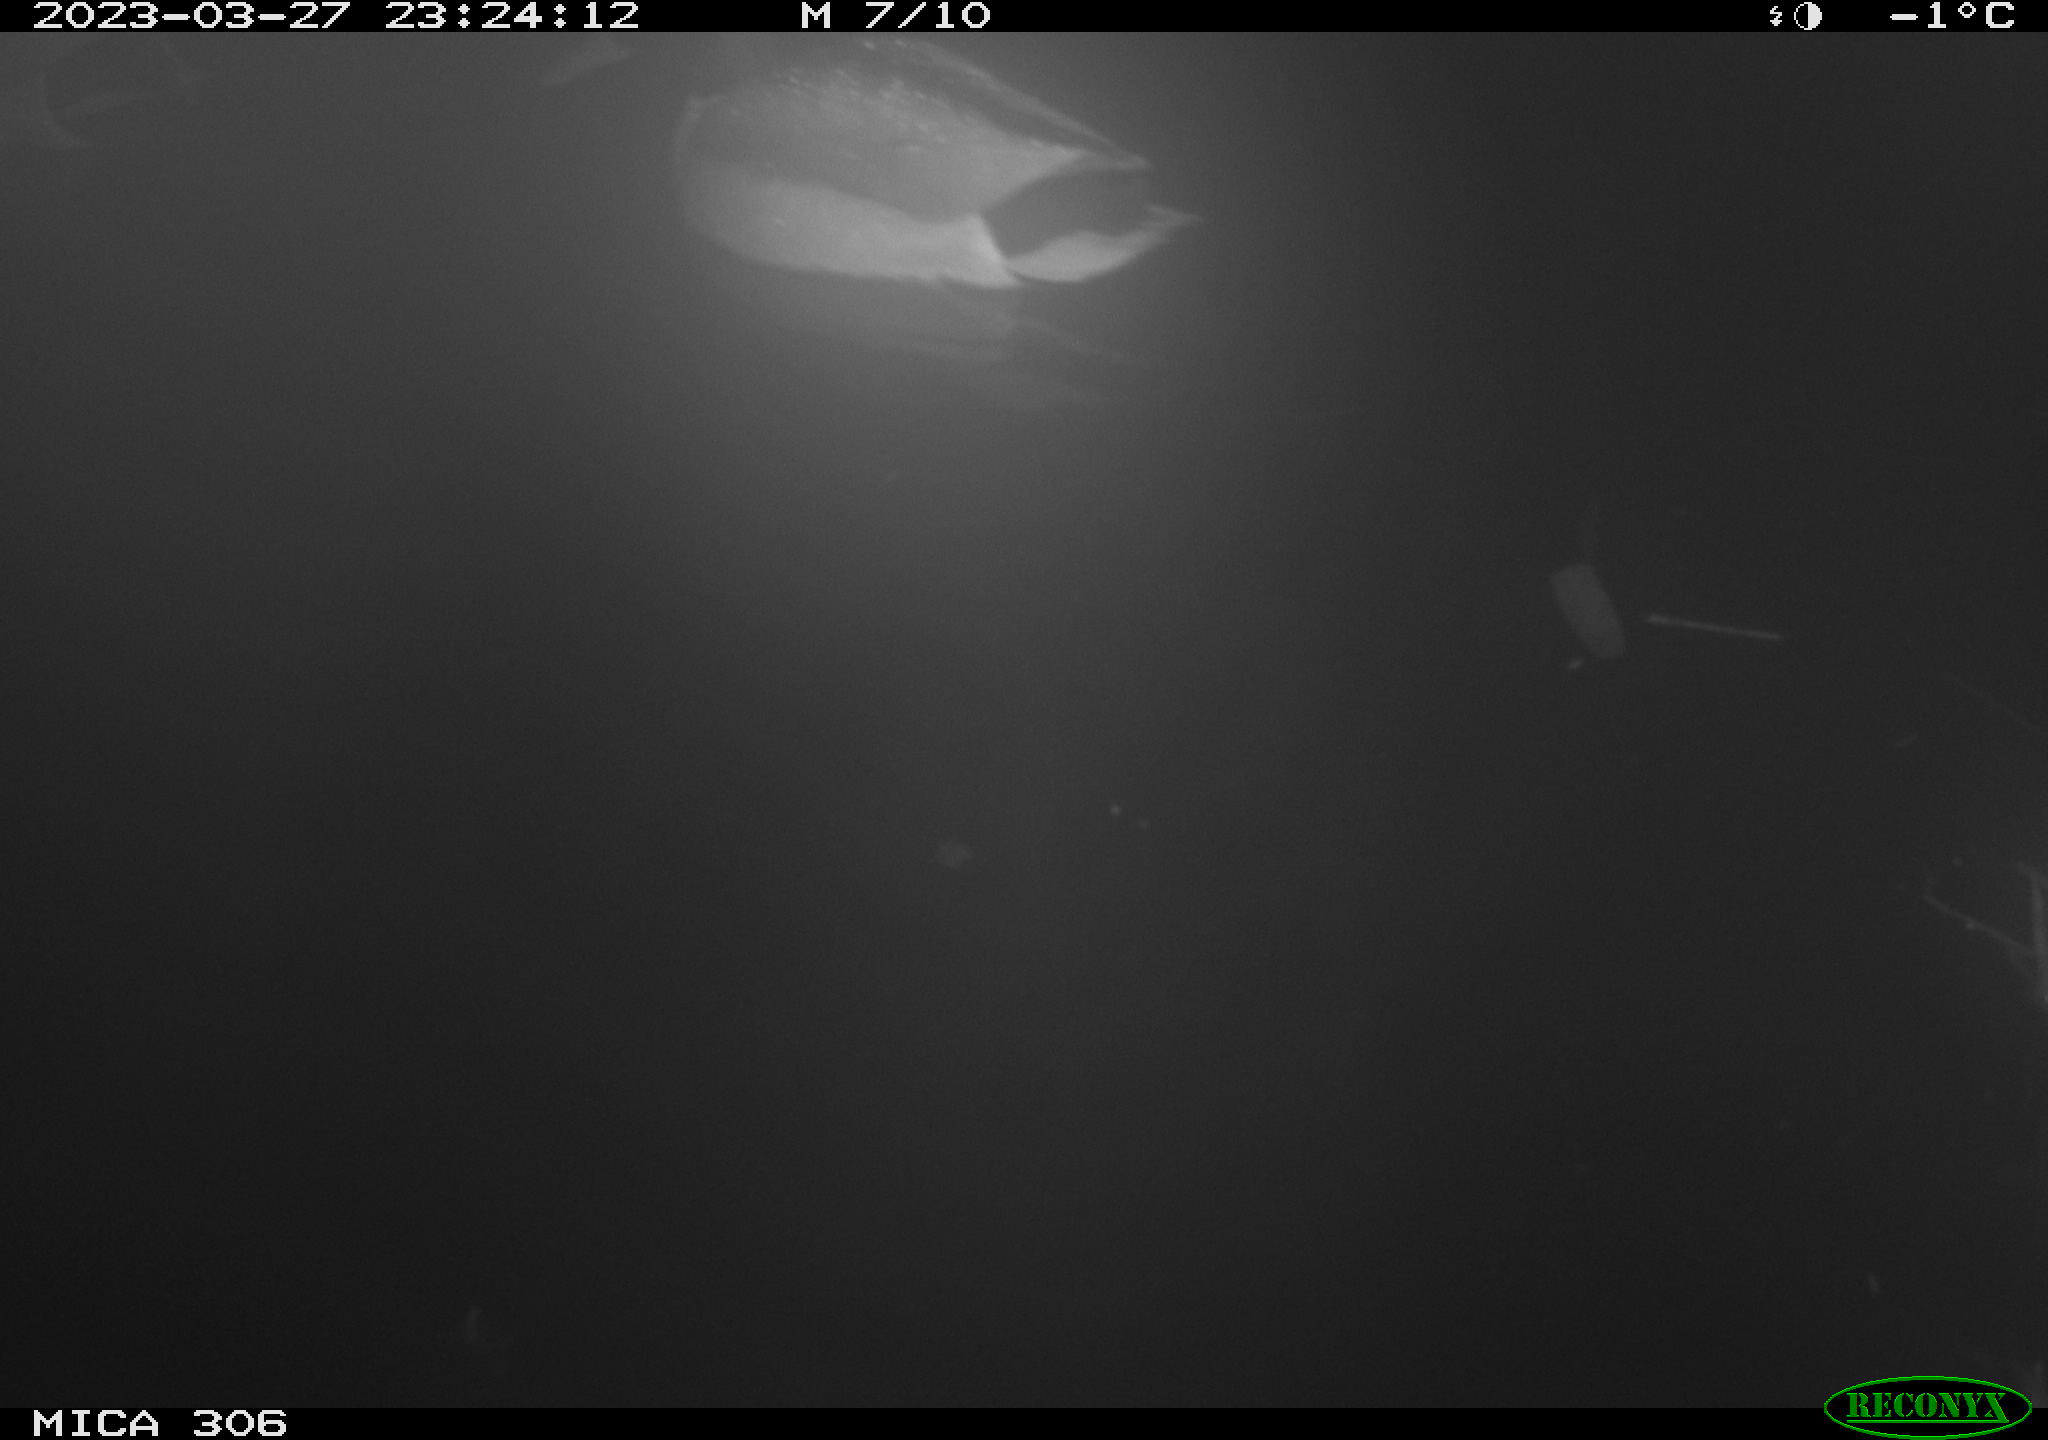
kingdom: Animalia
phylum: Chordata
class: Aves
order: Anseriformes
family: Anatidae
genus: Anas
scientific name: Anas
